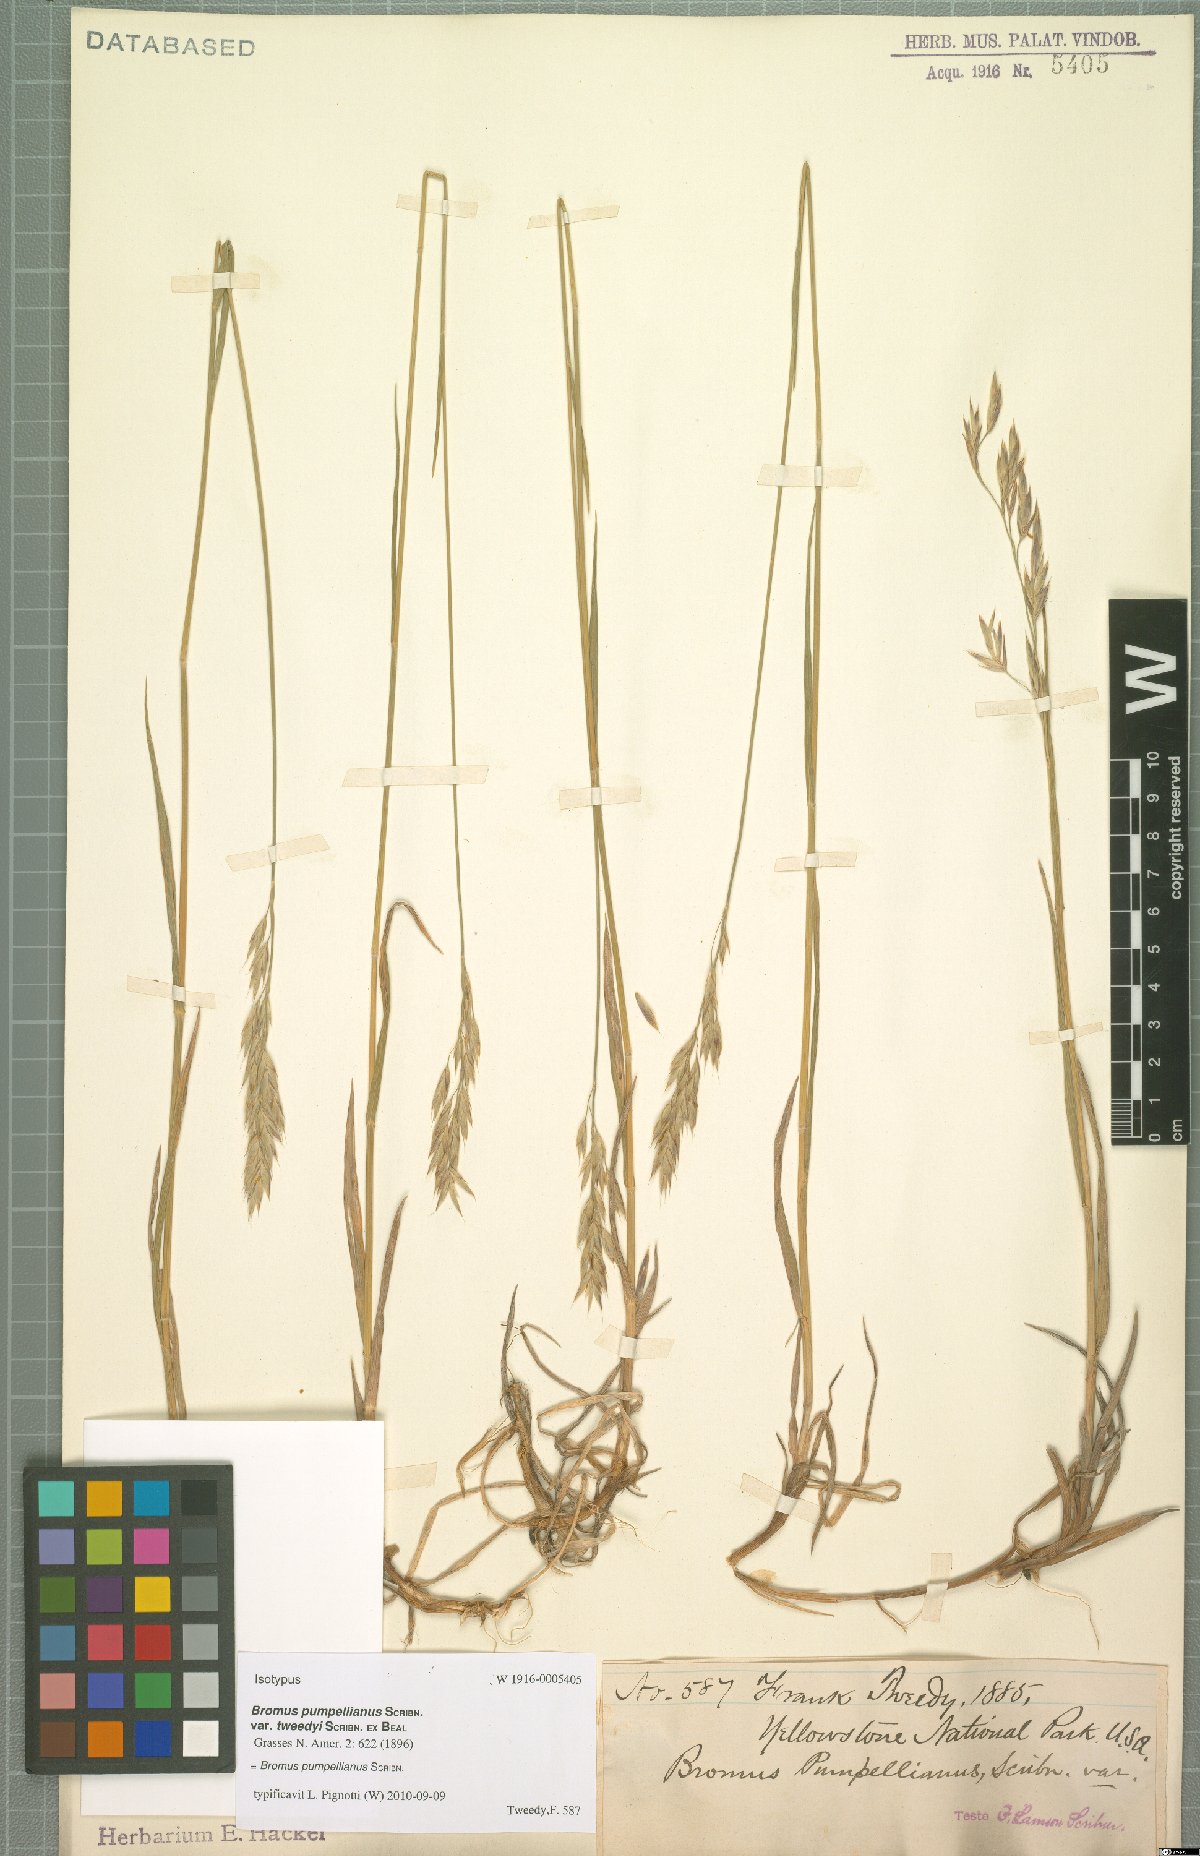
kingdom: Plantae
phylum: Tracheophyta
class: Liliopsida
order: Poales
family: Poaceae
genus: Bromus
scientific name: Bromus pumpellianus
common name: Pumpelly's brome
